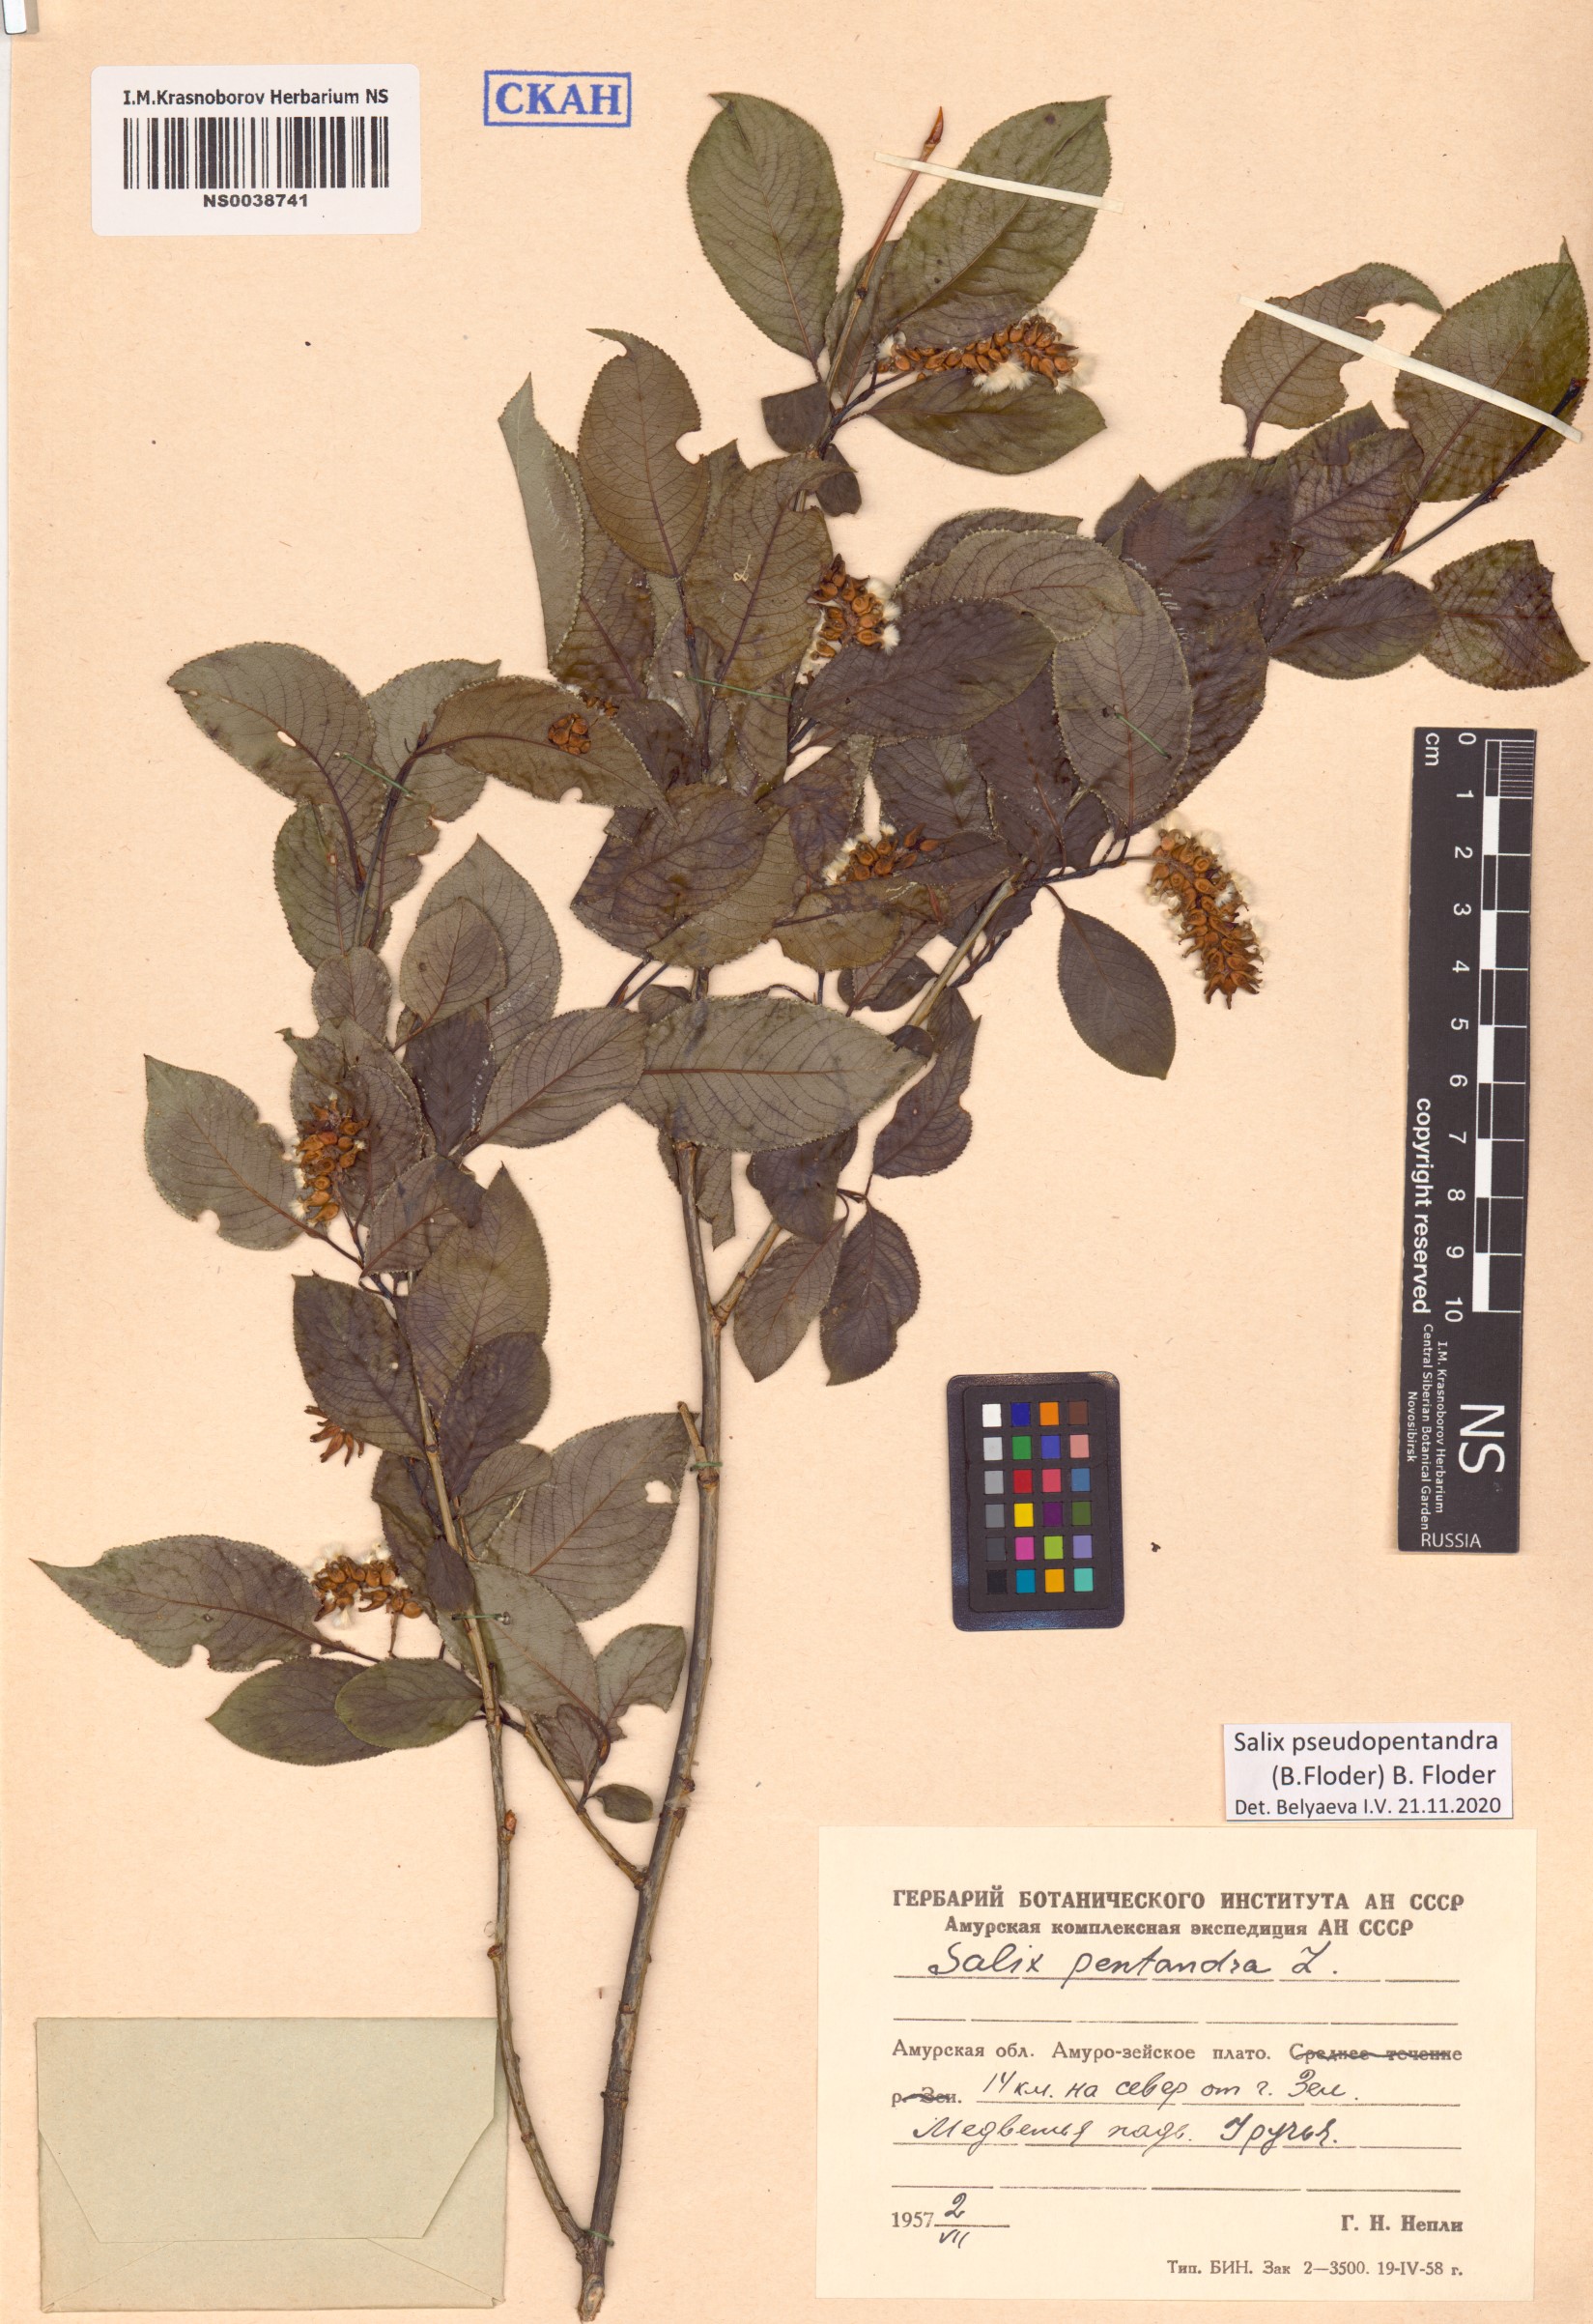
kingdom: Plantae
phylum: Tracheophyta
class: Magnoliopsida
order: Malpighiales
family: Salicaceae
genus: Salix
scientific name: Salix pseudopentandra
